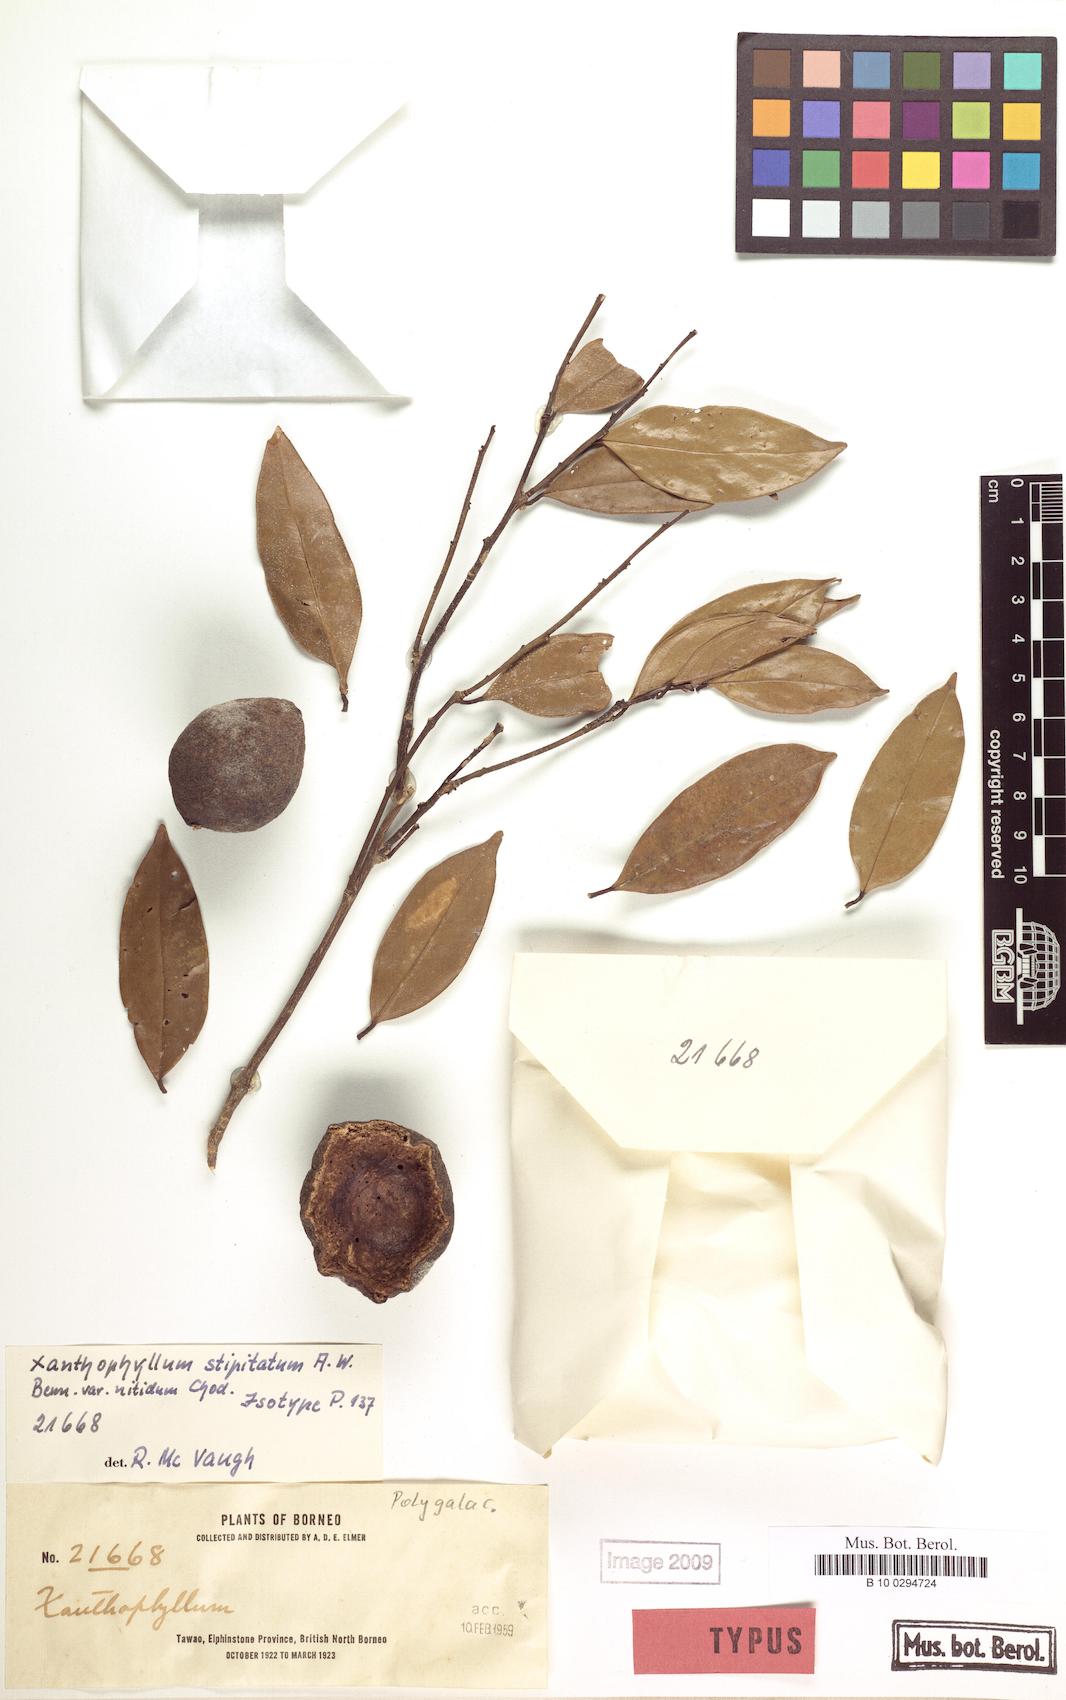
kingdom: Plantae
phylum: Tracheophyta
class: Magnoliopsida
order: Fabales
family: Polygalaceae
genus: Xanthophyllum
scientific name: Xanthophyllum stipitatum
